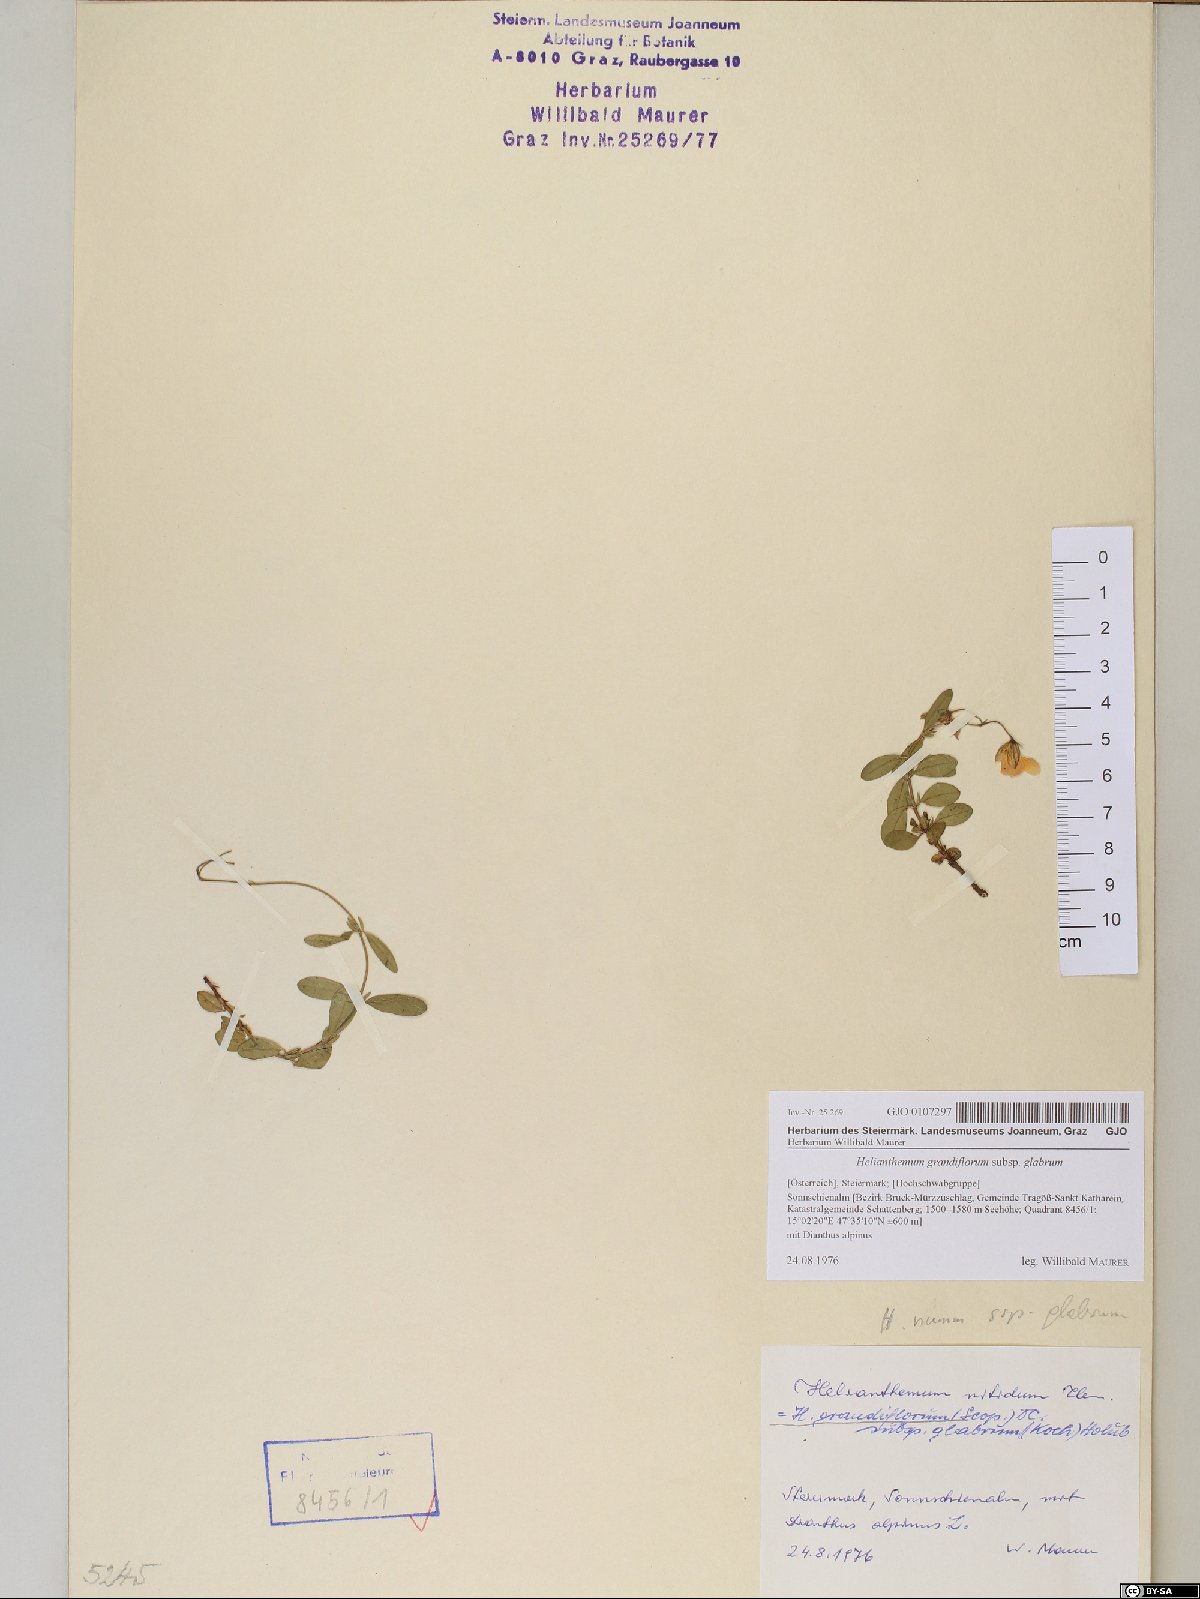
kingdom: Plantae
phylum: Tracheophyta
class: Magnoliopsida
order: Malvales
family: Cistaceae
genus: Helianthemum
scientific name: Helianthemum nummularium
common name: Common rock-rose
